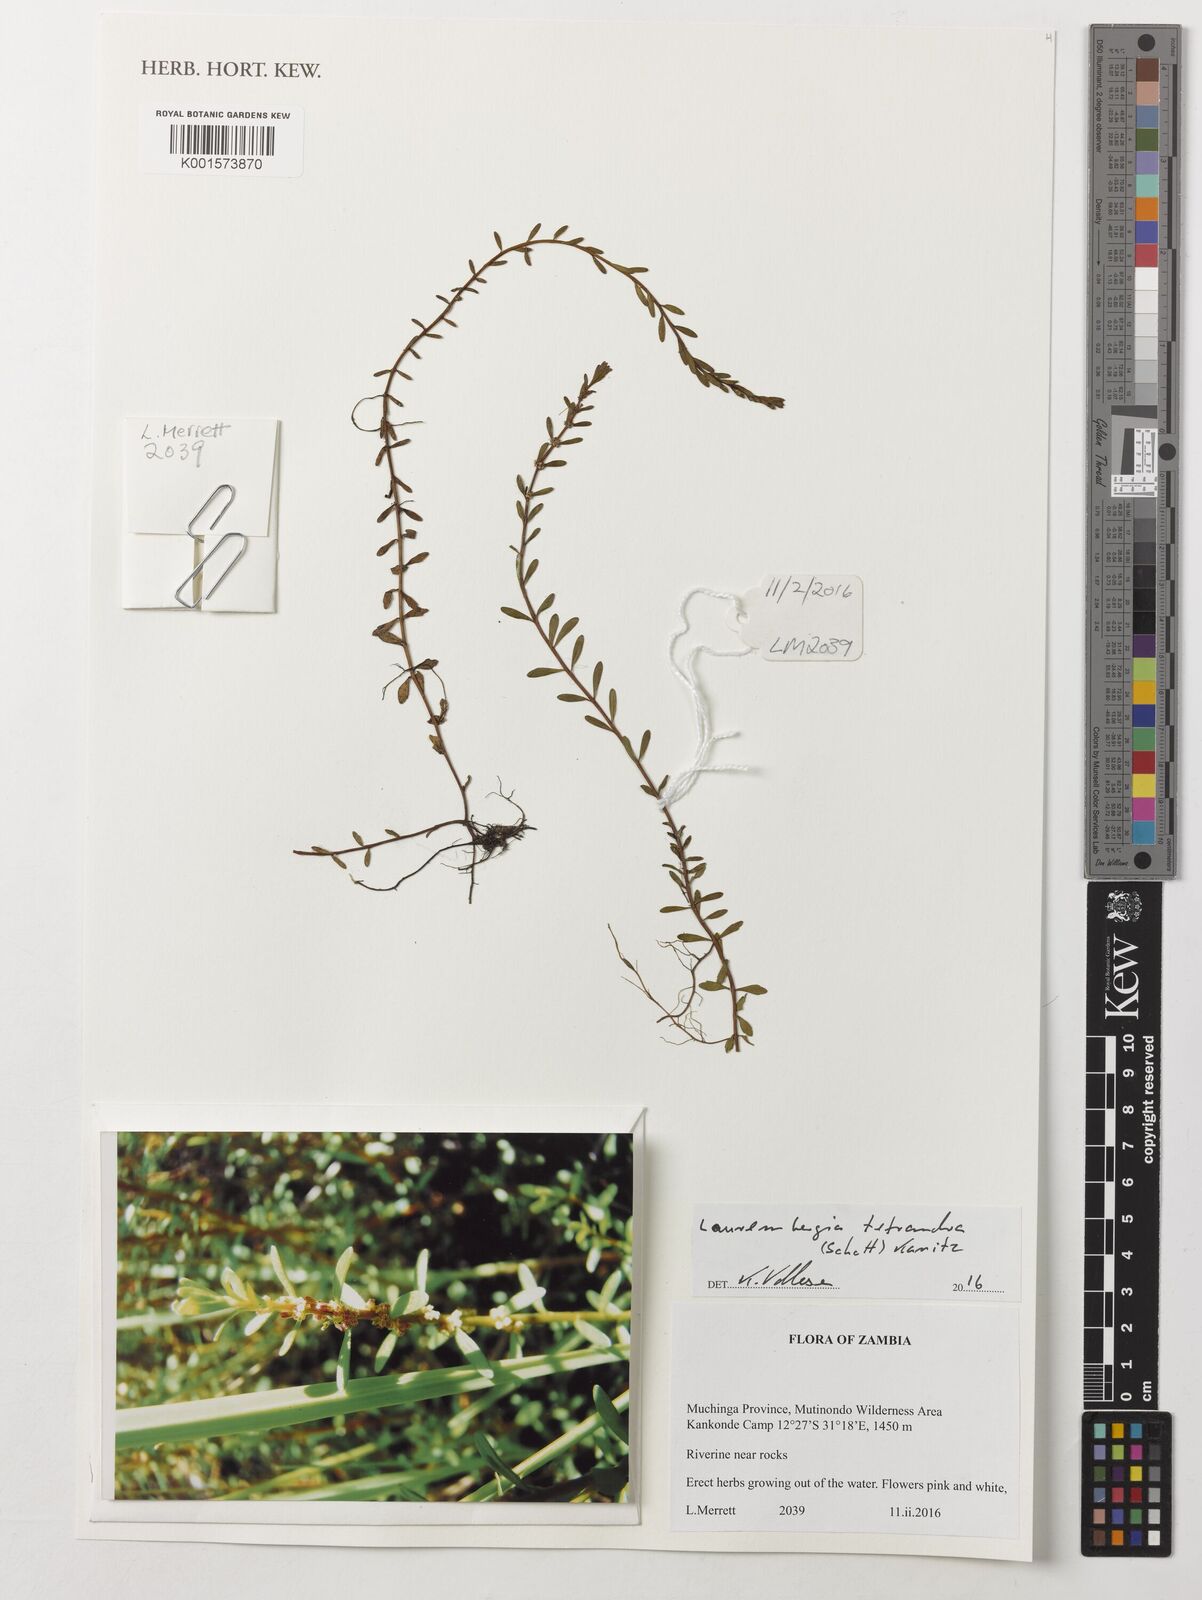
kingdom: Plantae
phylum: Tracheophyta
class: Magnoliopsida
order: Saxifragales
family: Haloragaceae
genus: Laurembergia
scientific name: Laurembergia tetrandra
